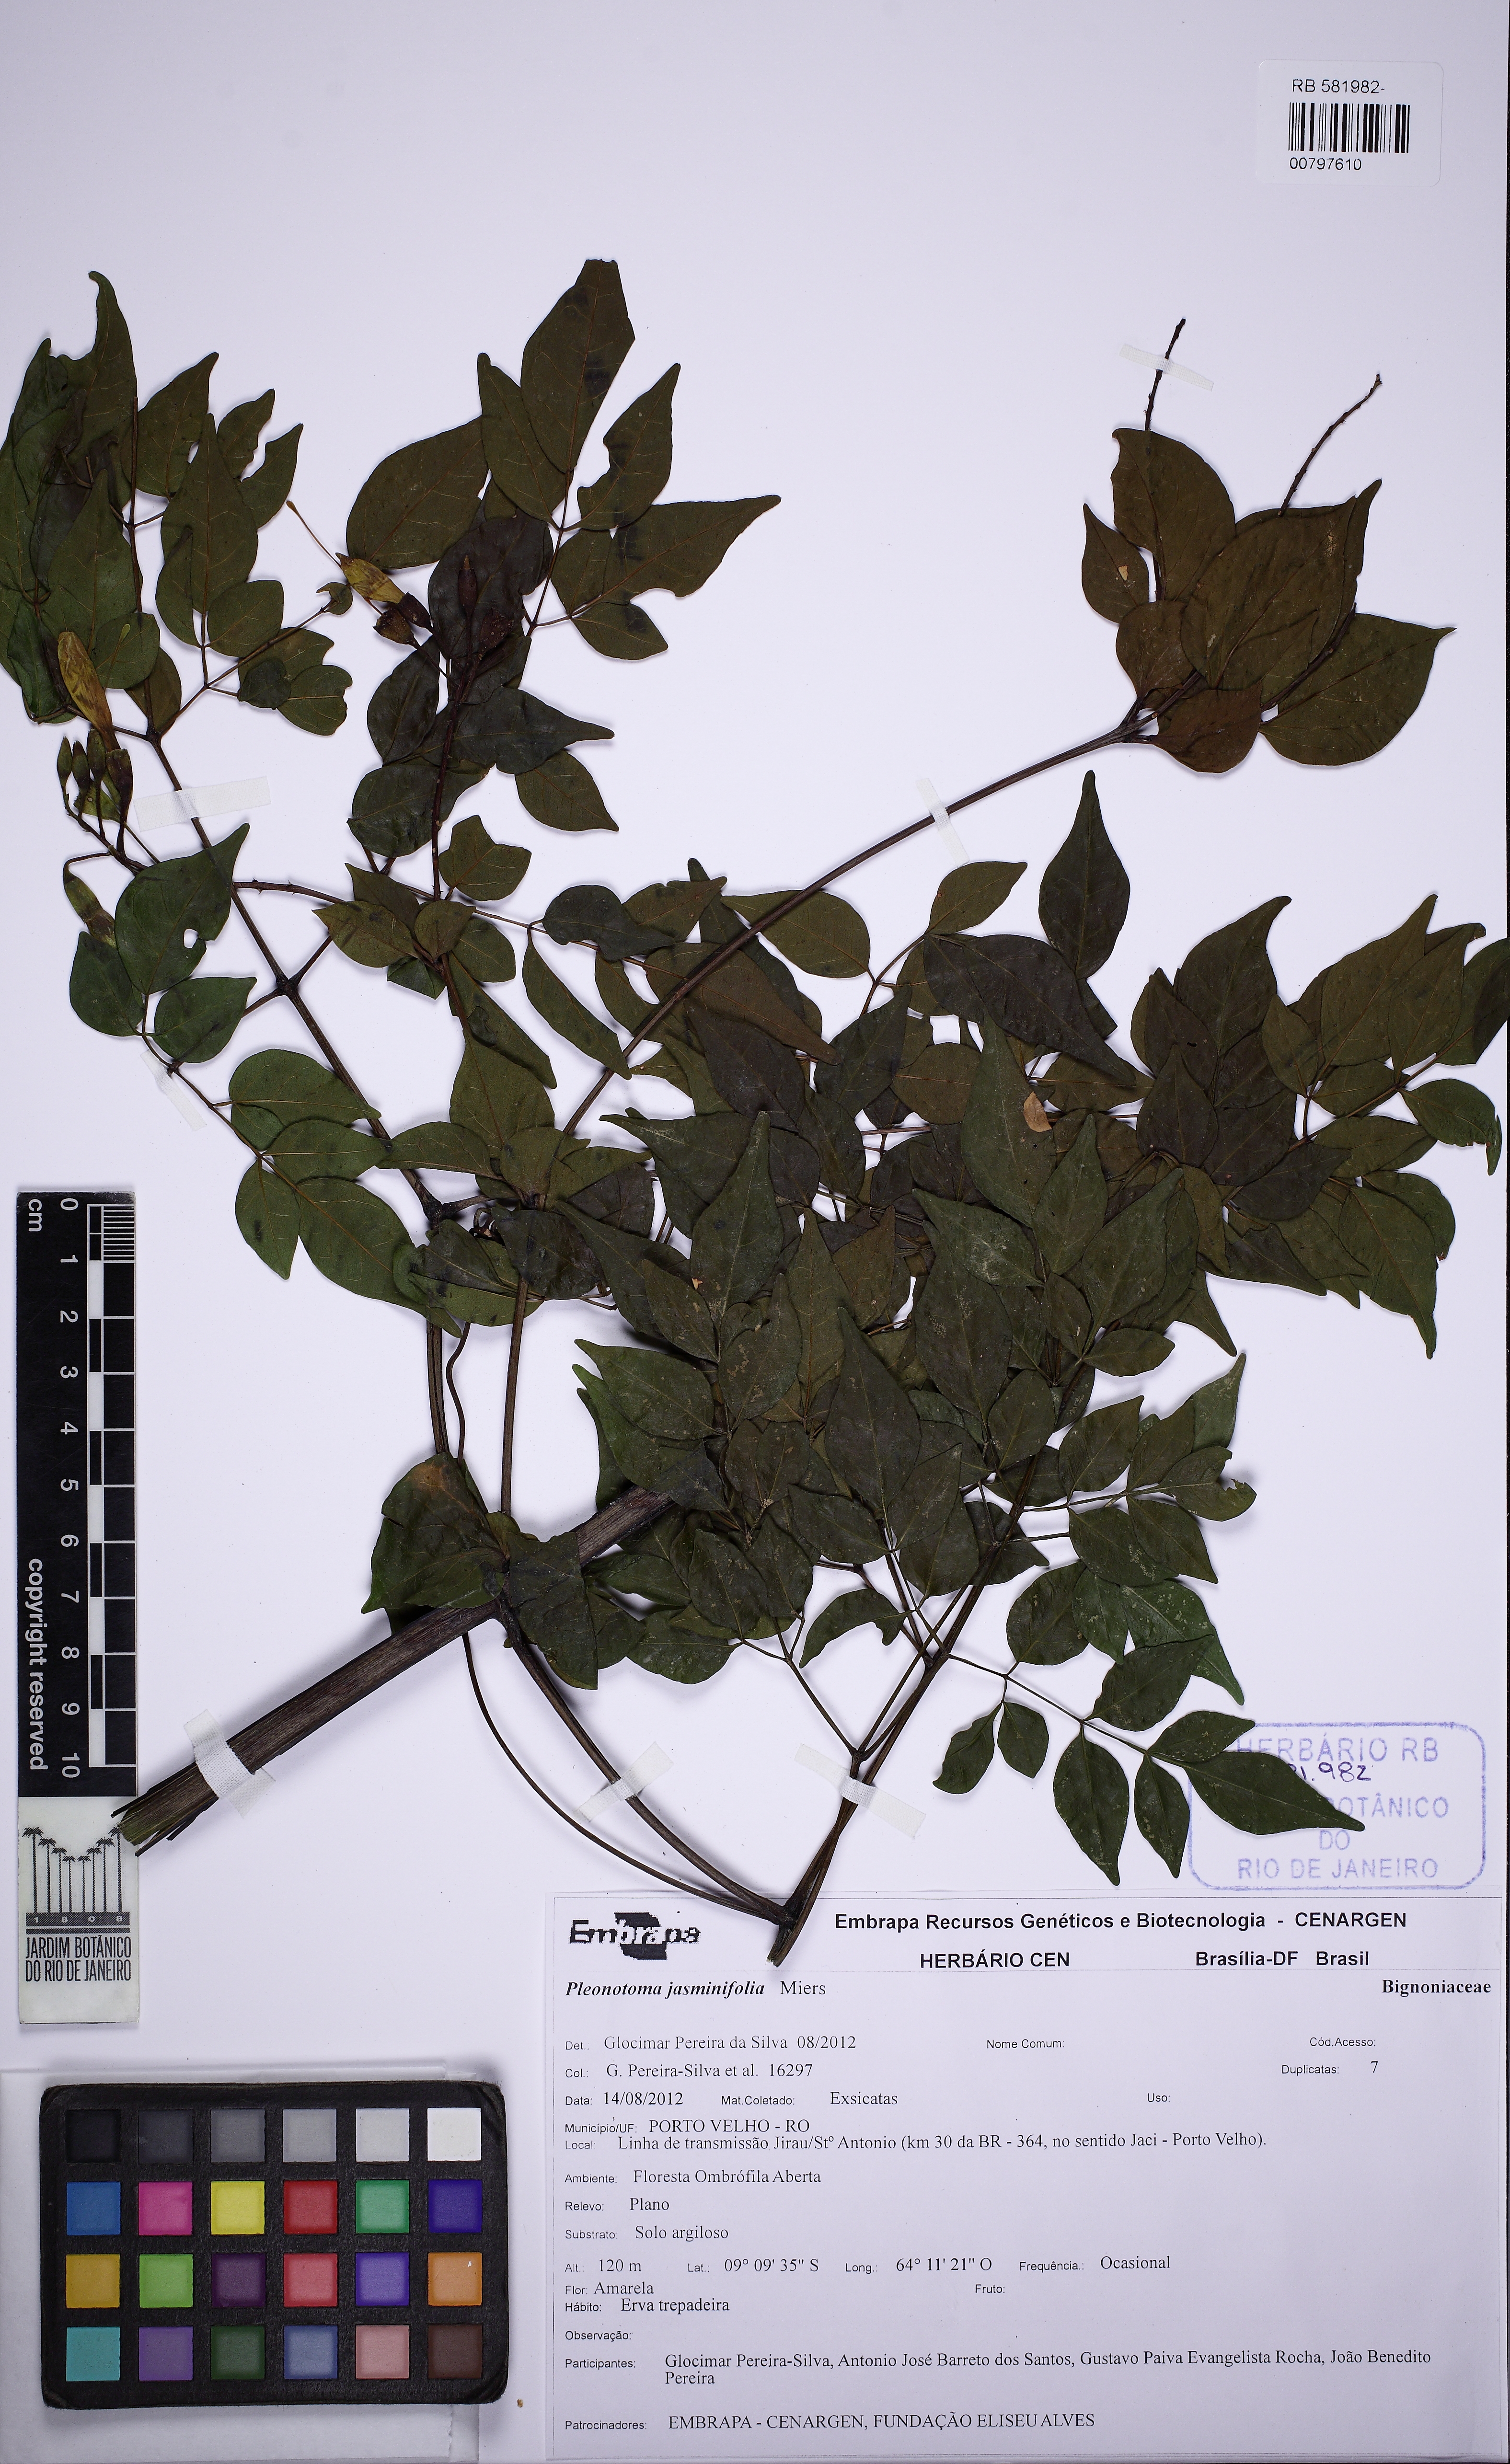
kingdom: Plantae
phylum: Tracheophyta
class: Magnoliopsida
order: Lamiales
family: Bignoniaceae
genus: Pleonotoma
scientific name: Pleonotoma jasminifolia
